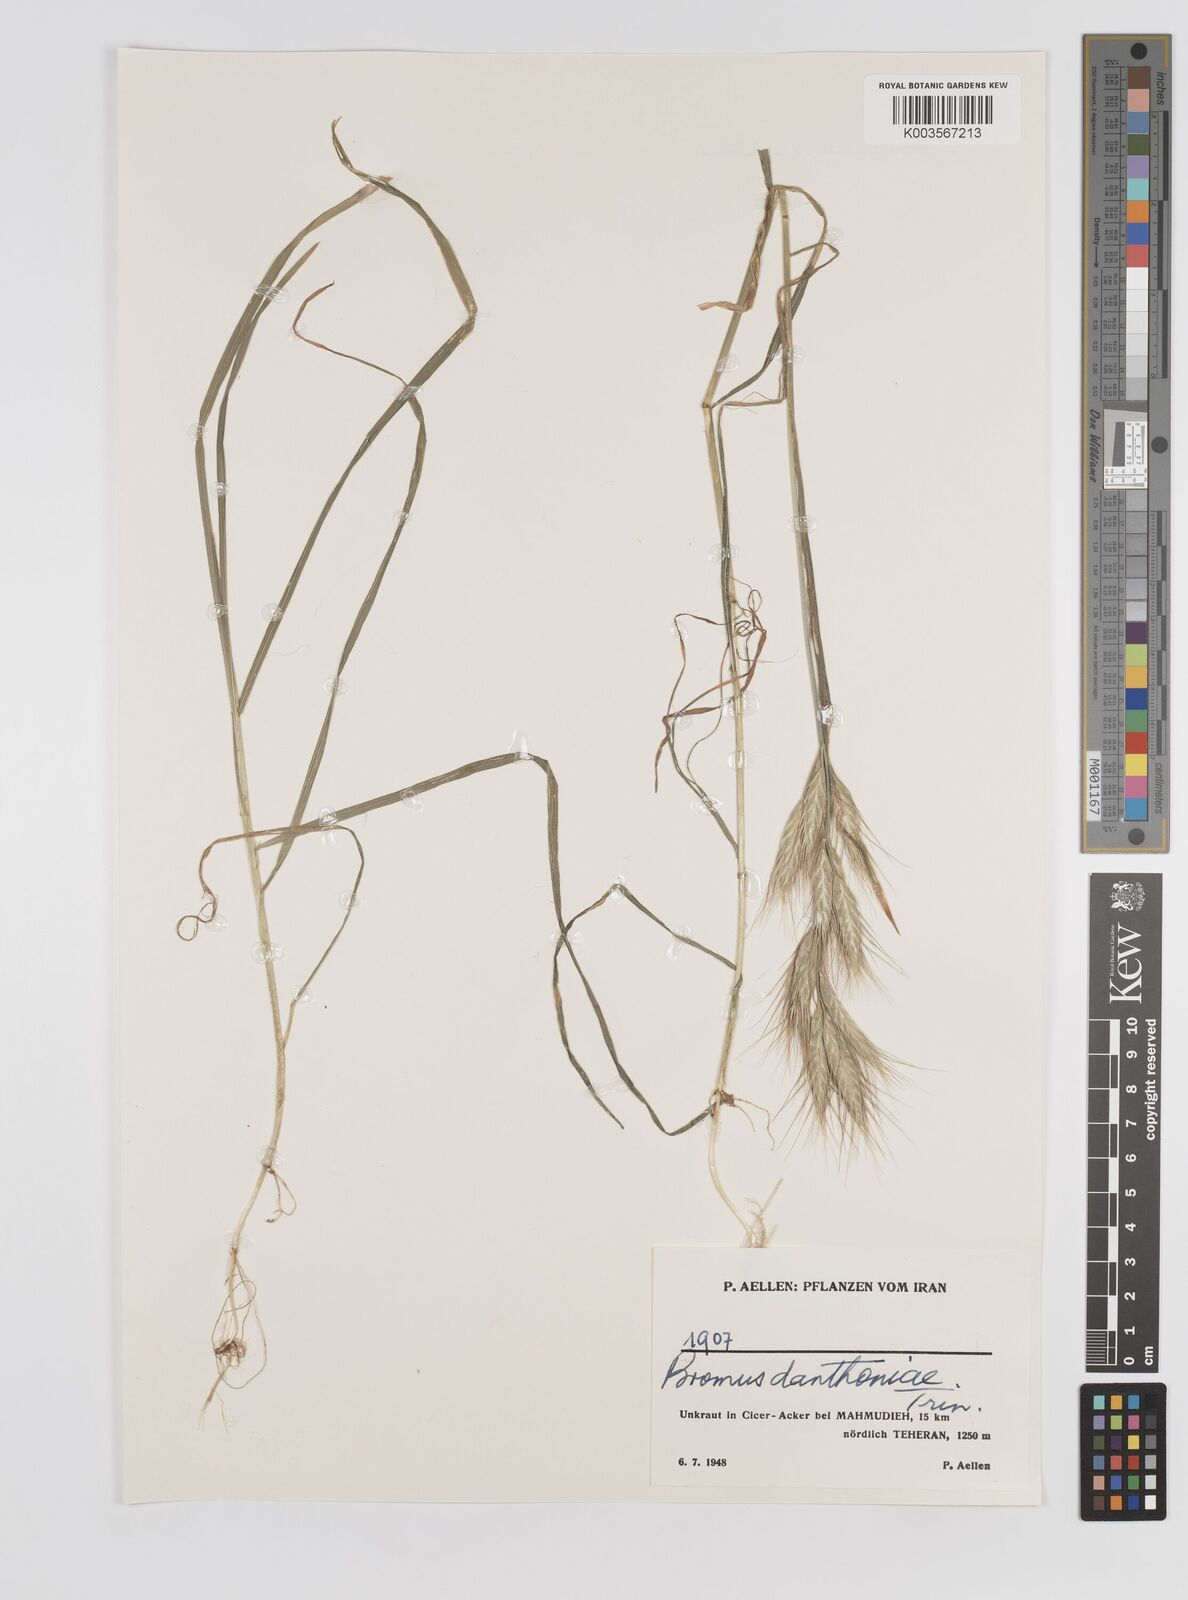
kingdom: Plantae
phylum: Tracheophyta
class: Liliopsida
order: Poales
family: Poaceae
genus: Bromus
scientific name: Bromus danthoniae
